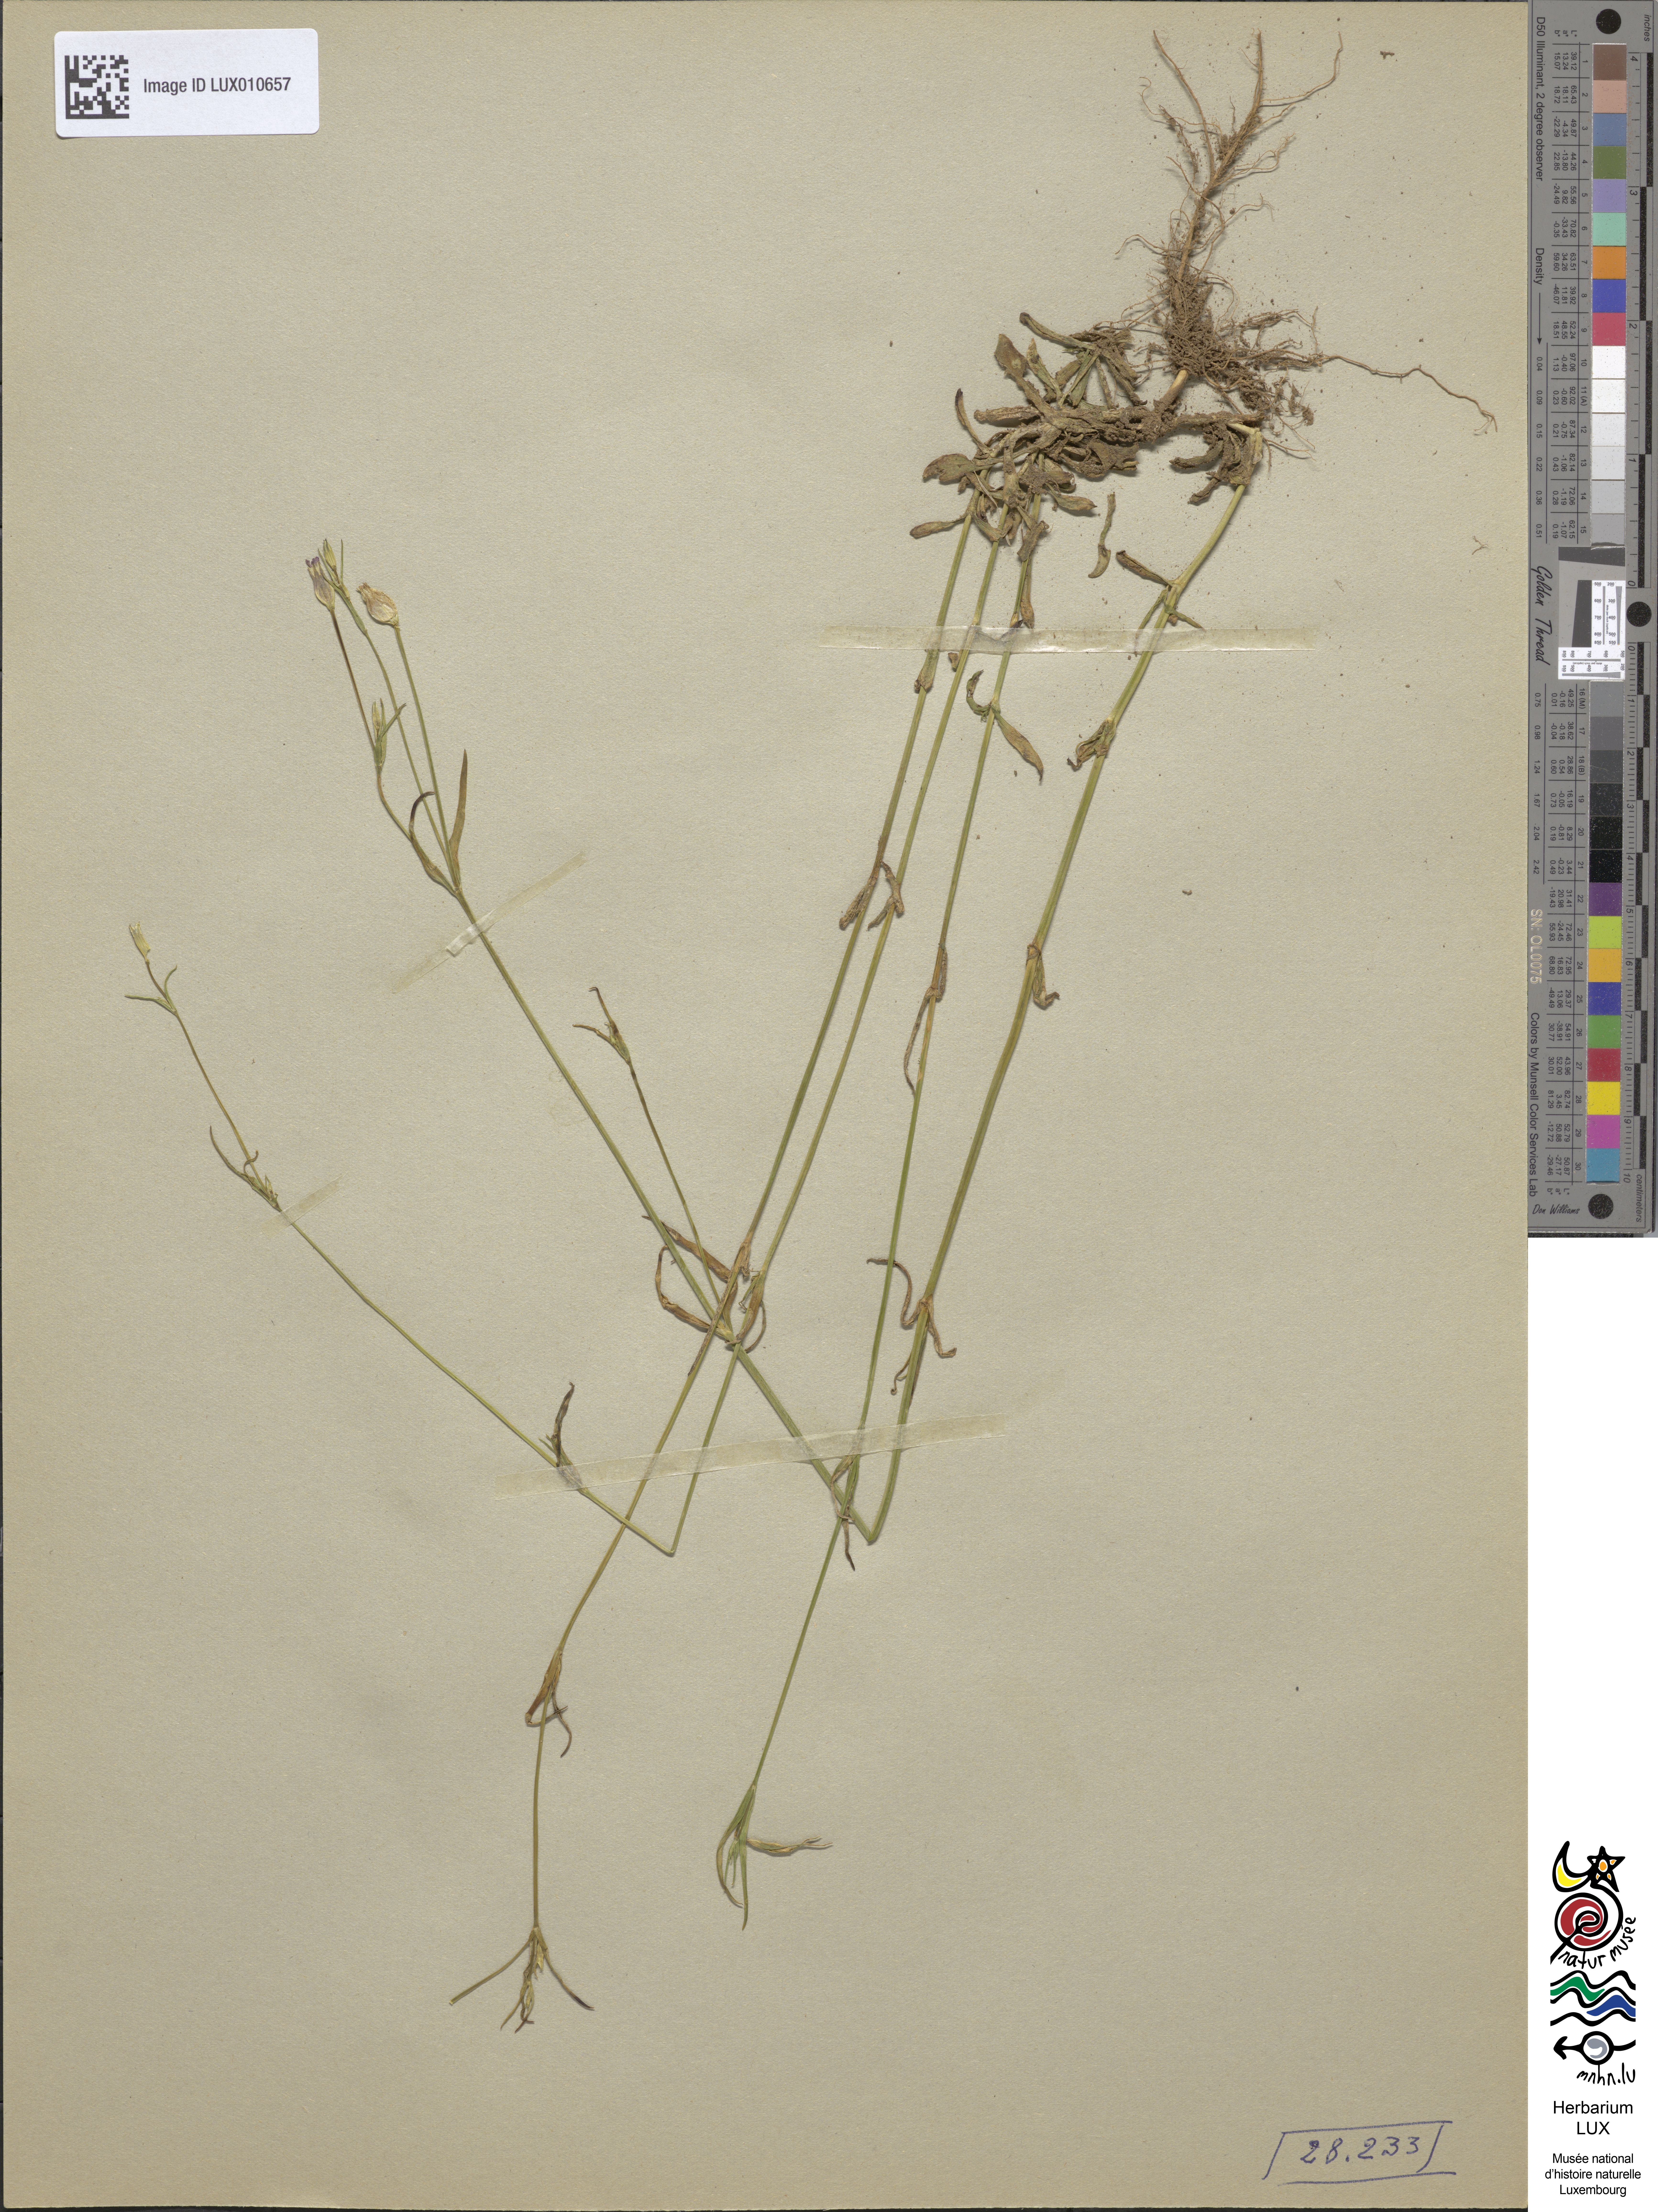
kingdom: Plantae
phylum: Tracheophyta
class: Magnoliopsida
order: Caryophyllales
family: Caryophyllaceae
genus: Silene
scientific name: Silene cretica
